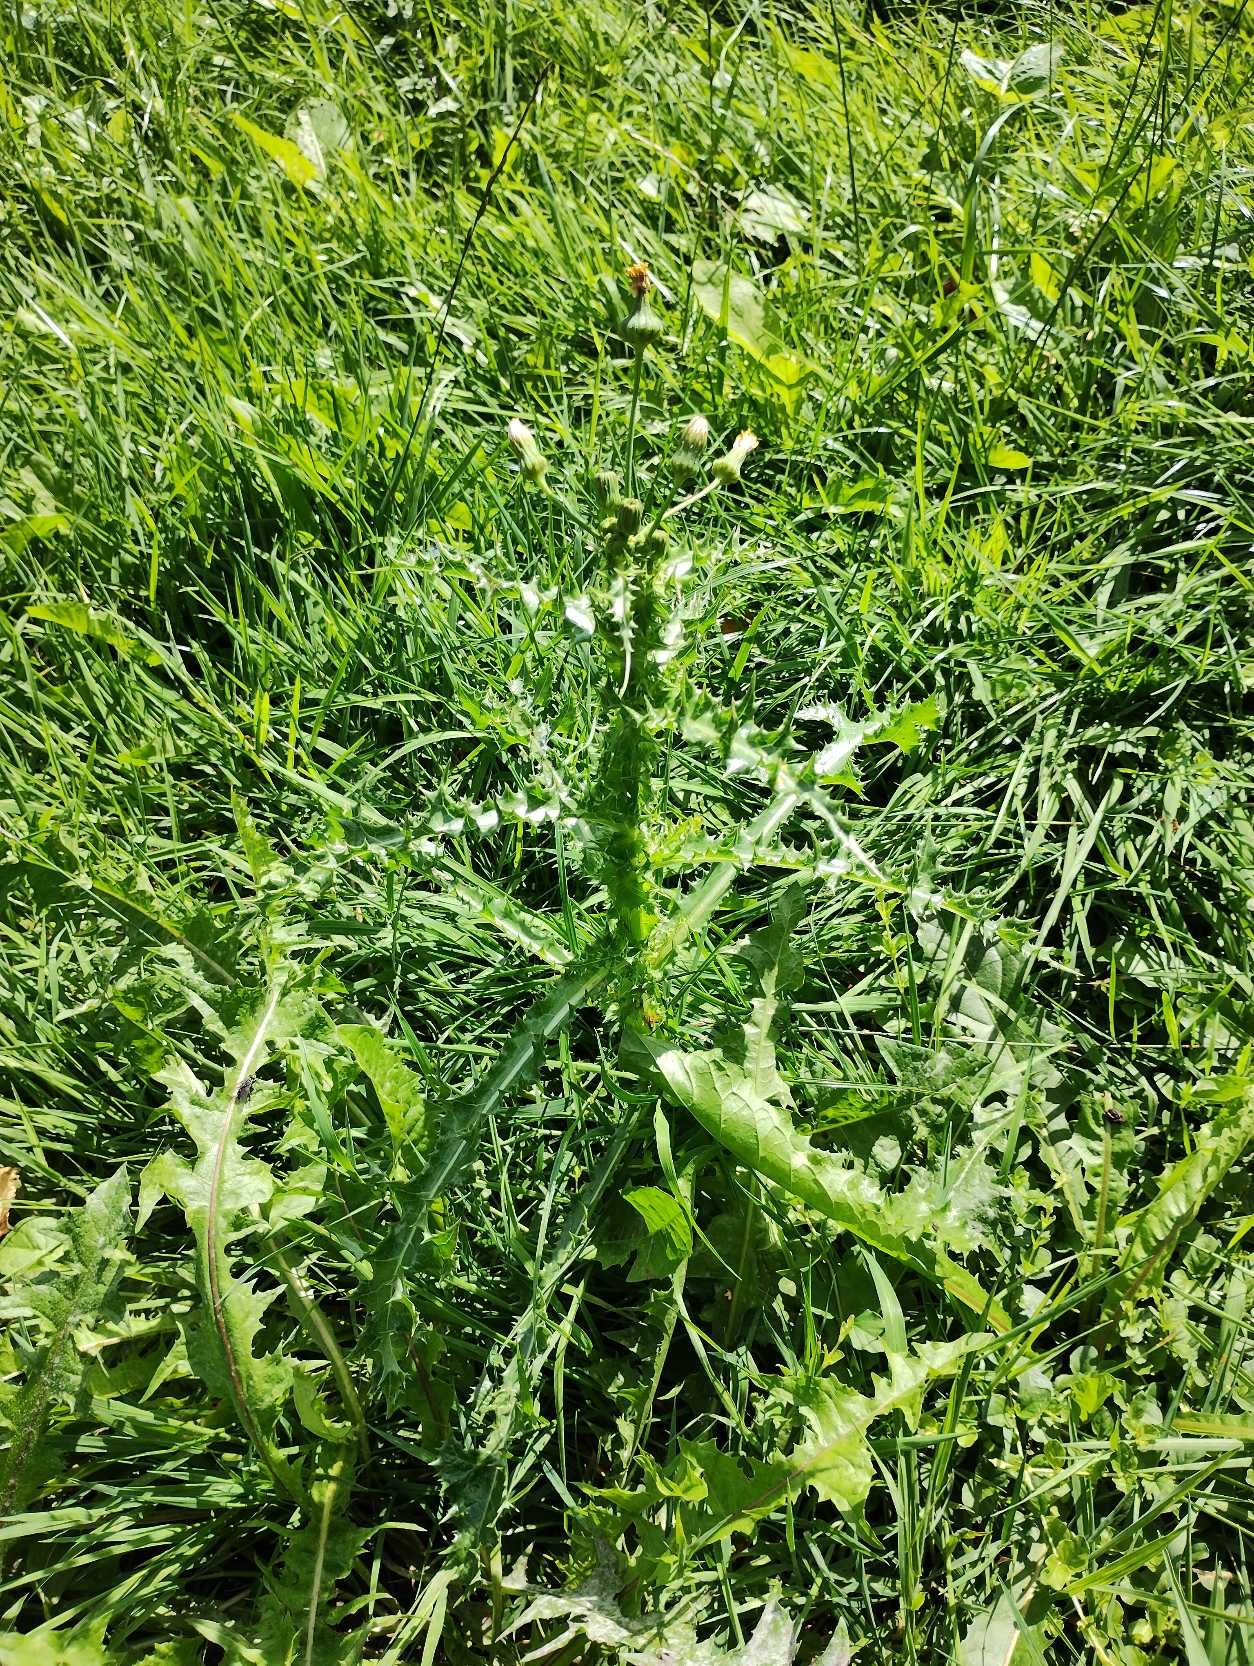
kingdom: Plantae
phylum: Tracheophyta
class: Magnoliopsida
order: Asterales
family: Asteraceae
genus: Sonchus
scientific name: Sonchus asper
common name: Ru svinemælk
